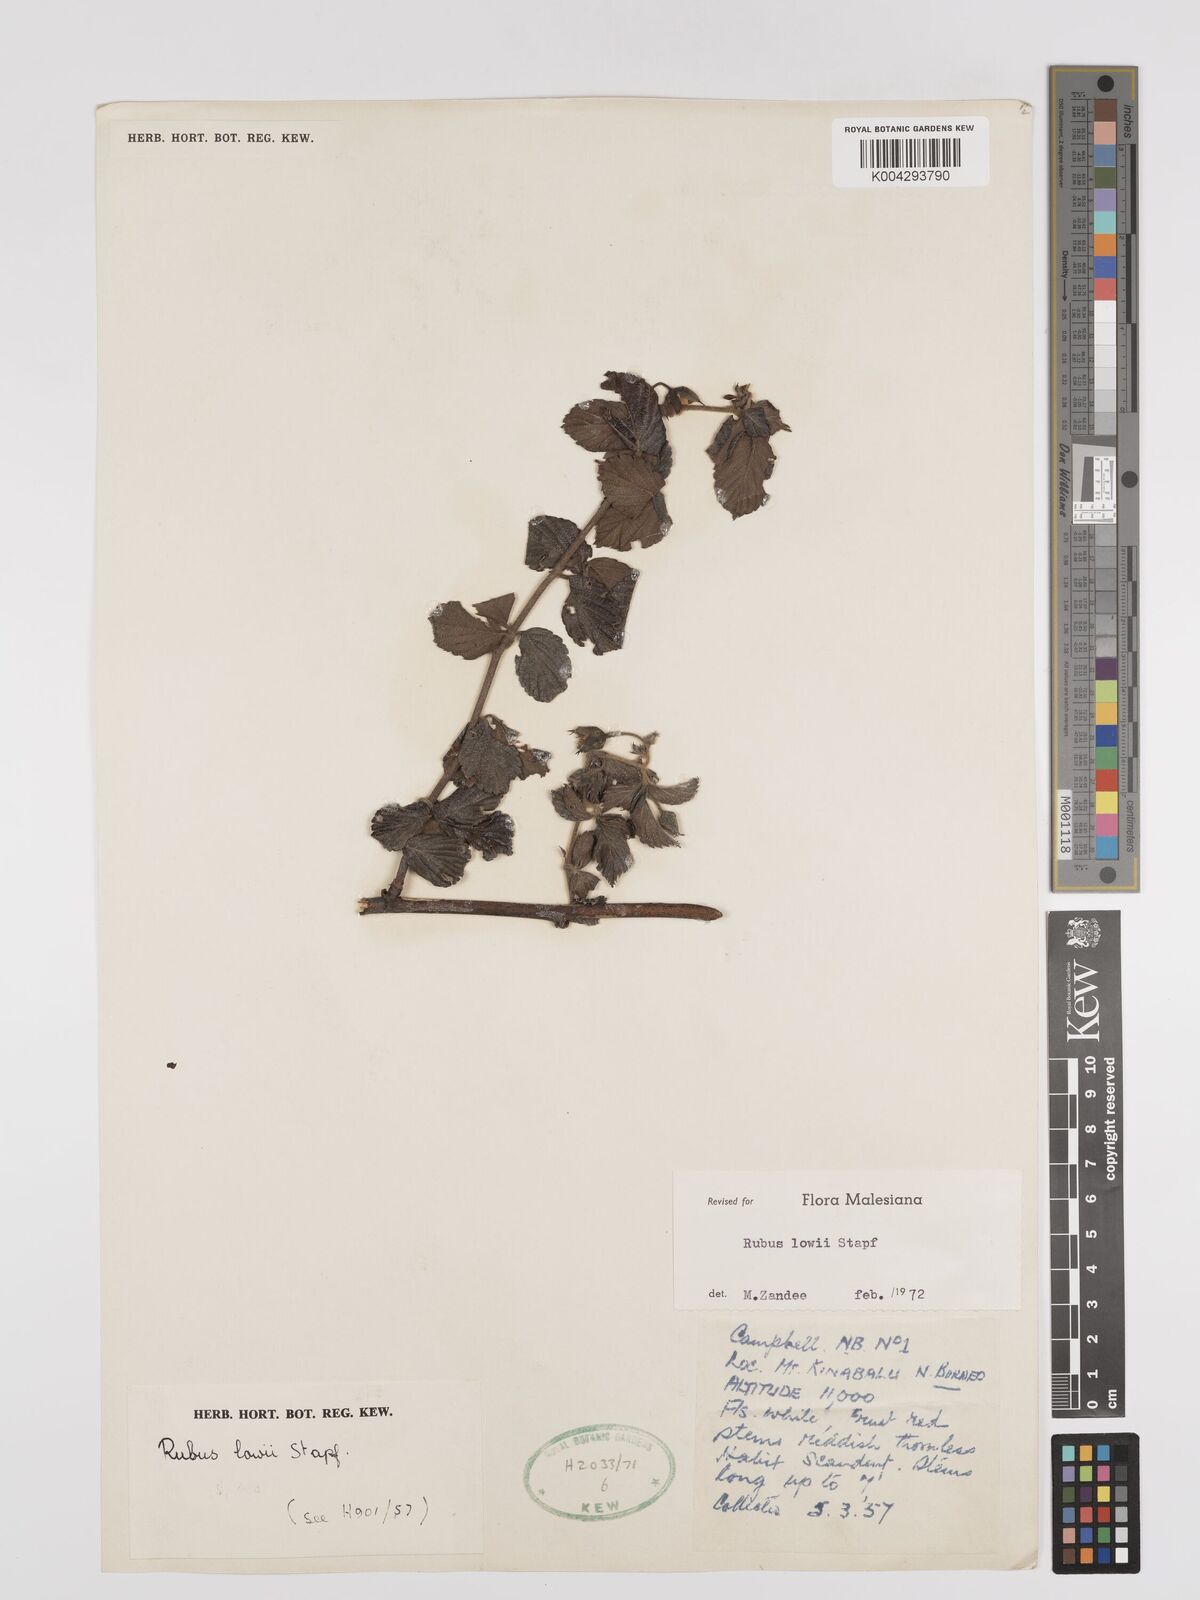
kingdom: Plantae
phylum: Tracheophyta
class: Magnoliopsida
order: Rosales
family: Rosaceae
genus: Rubus
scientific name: Rubus lowii
